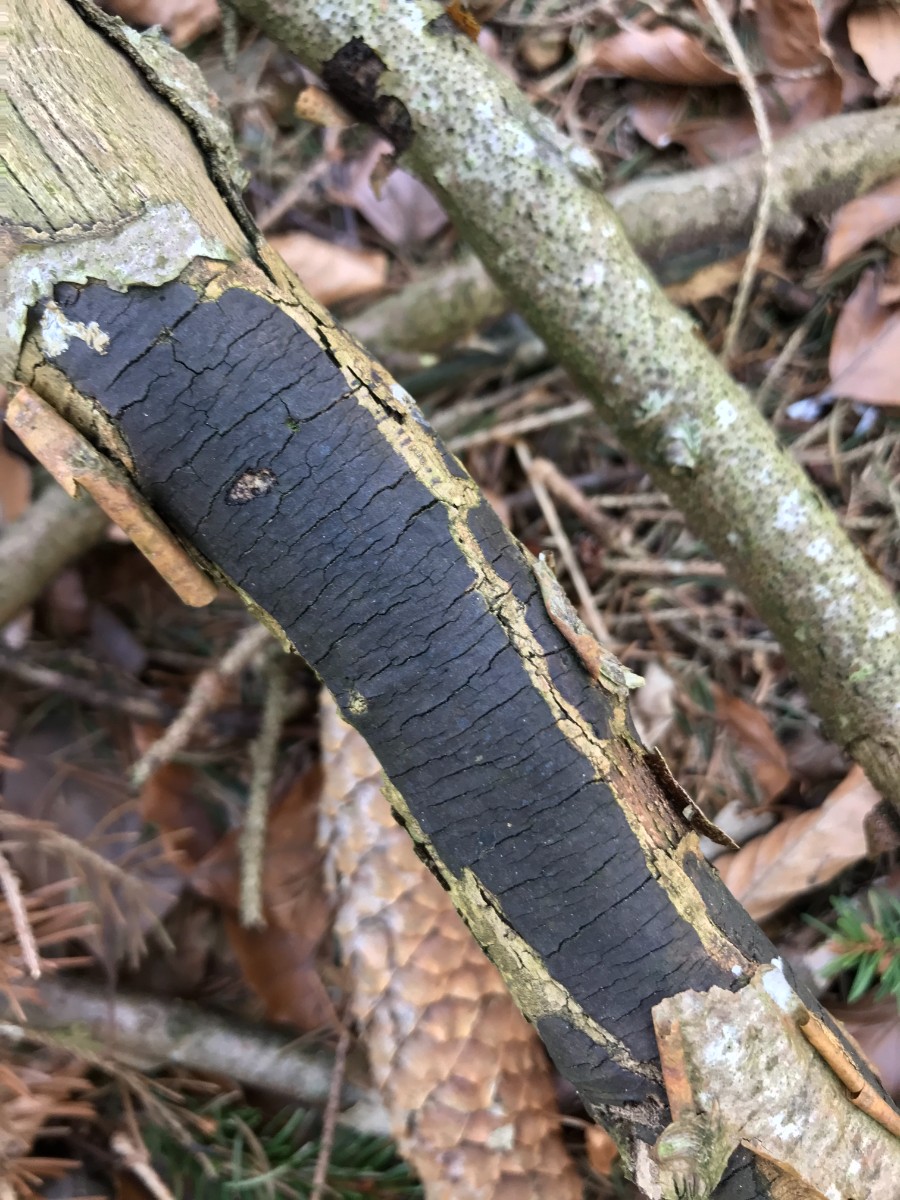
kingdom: Fungi
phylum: Ascomycota
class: Sordariomycetes
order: Xylariales
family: Diatrypaceae
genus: Diatrype
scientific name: Diatrype decorticata
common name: barksprænger-kulskorpe
